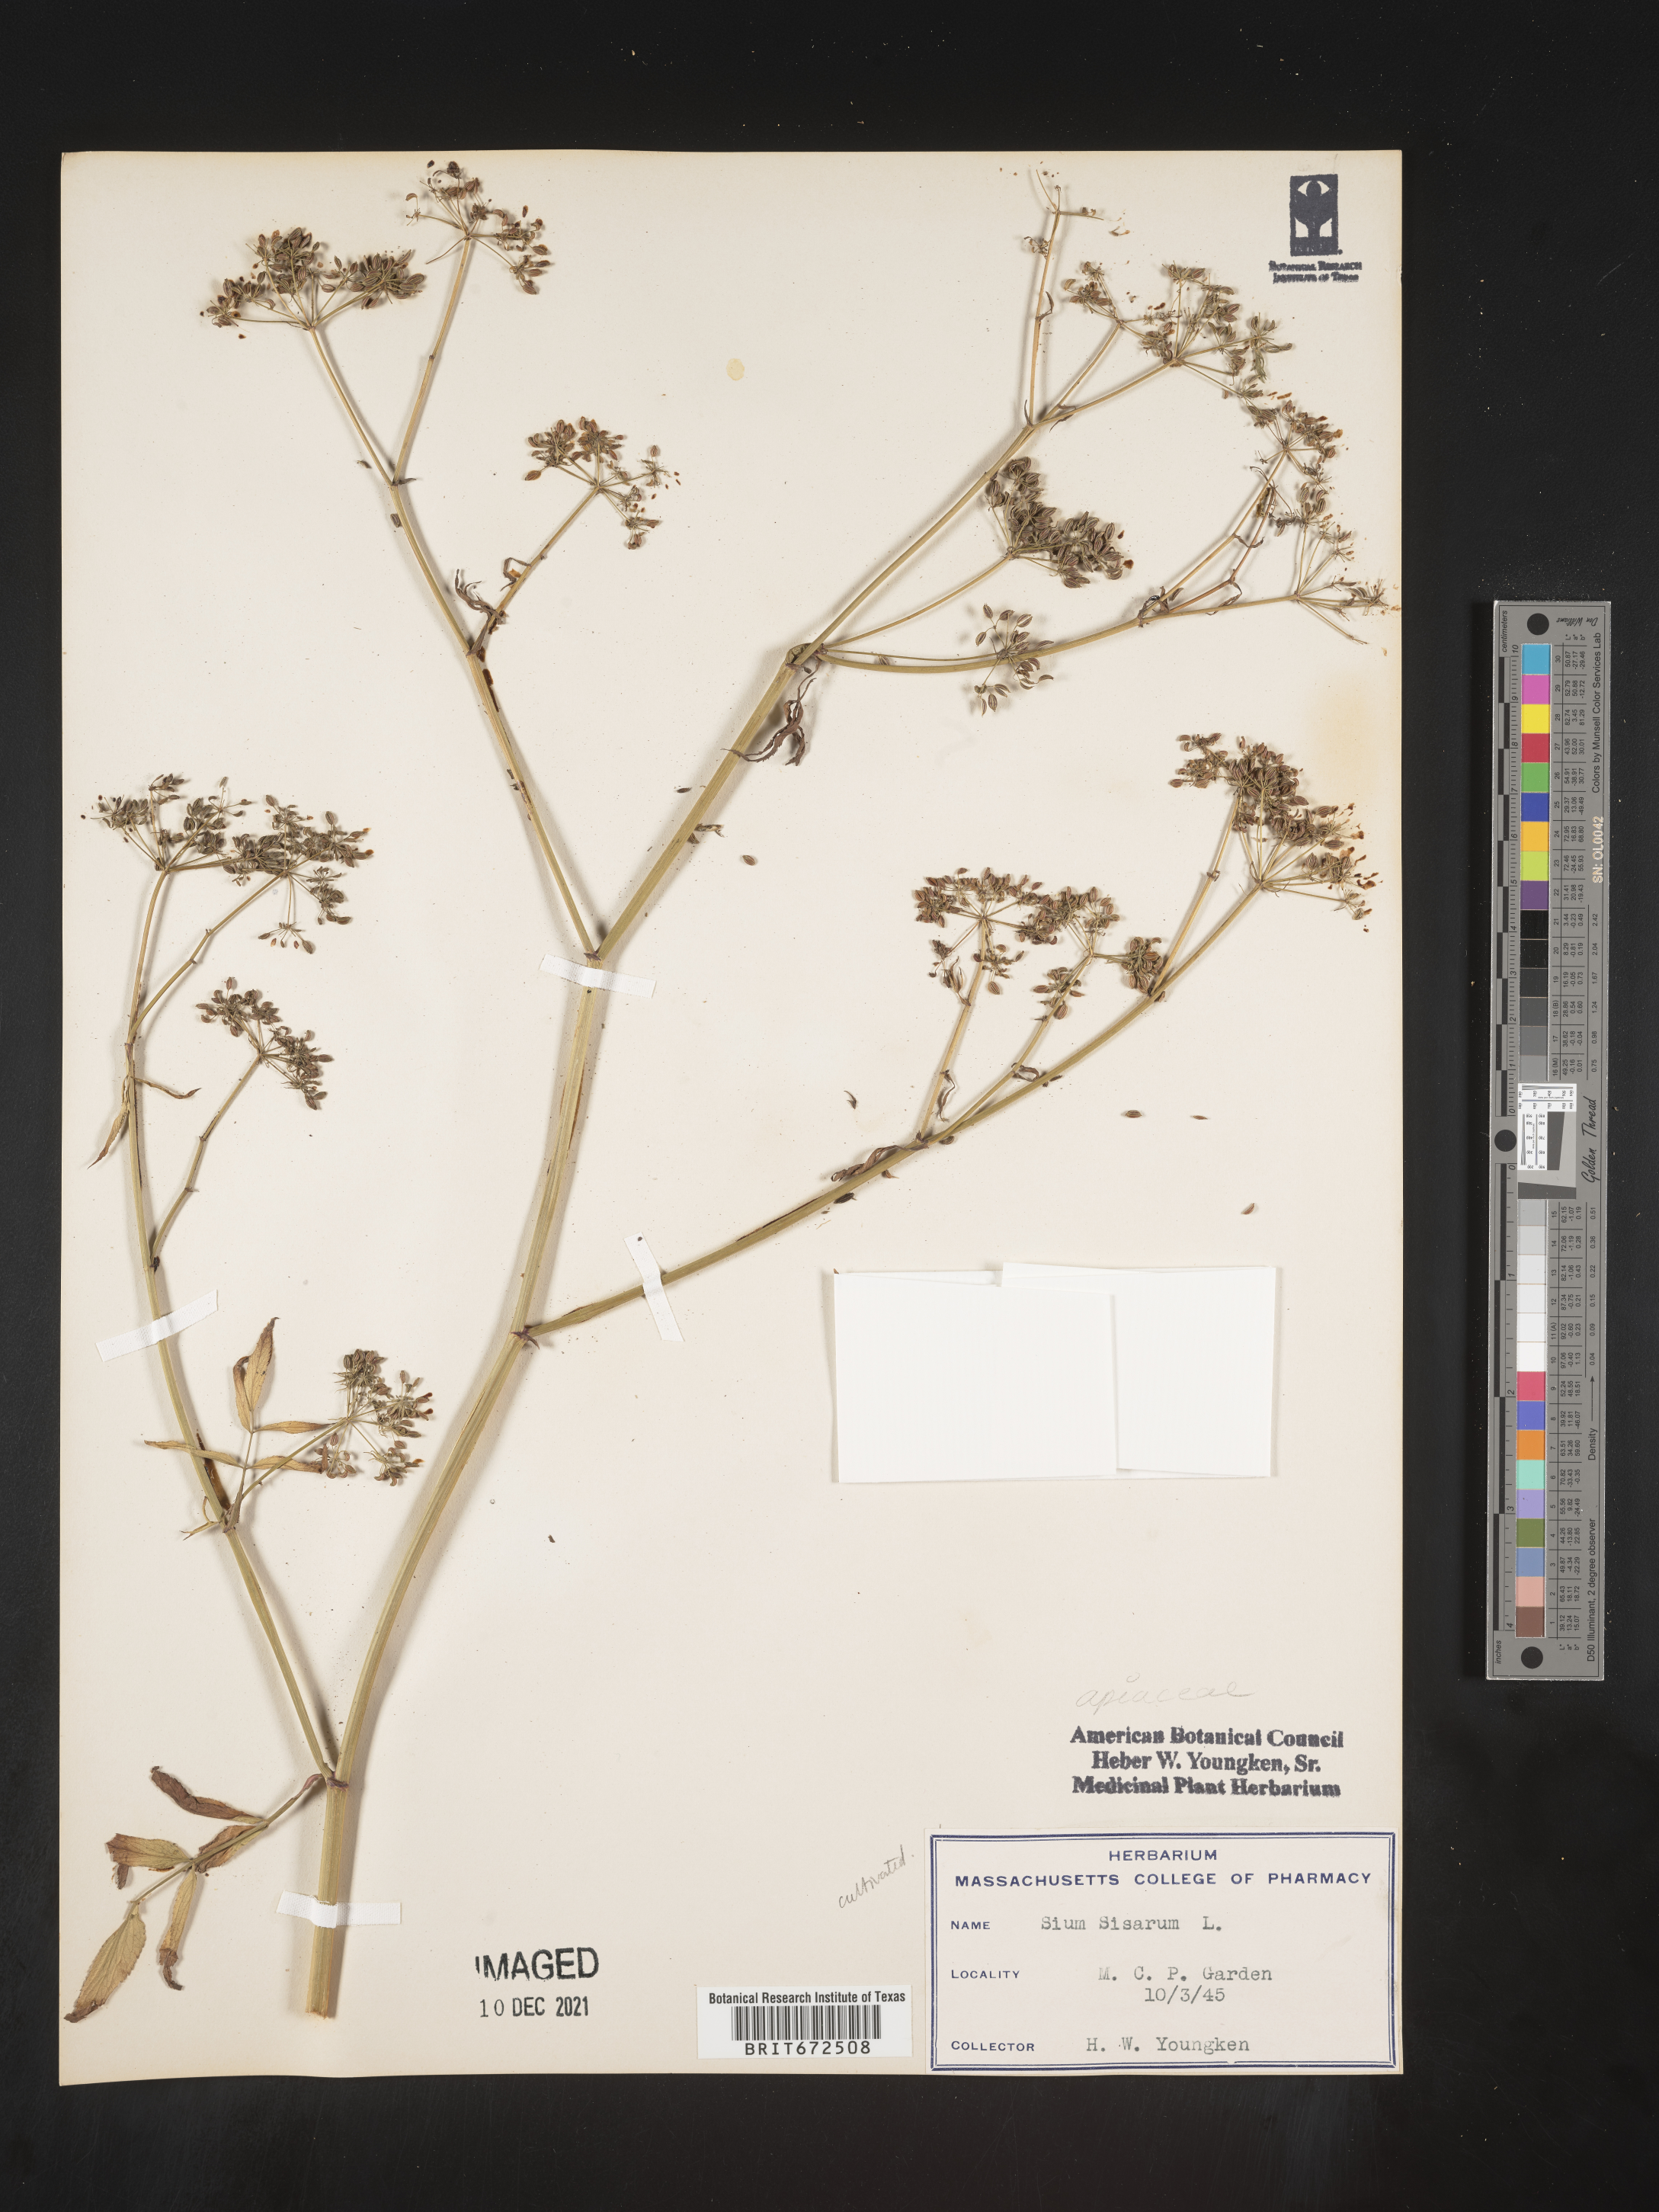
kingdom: Plantae
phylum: Tracheophyta
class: Magnoliopsida
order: Apiales
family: Apiaceae
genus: Sium
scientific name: Sium
